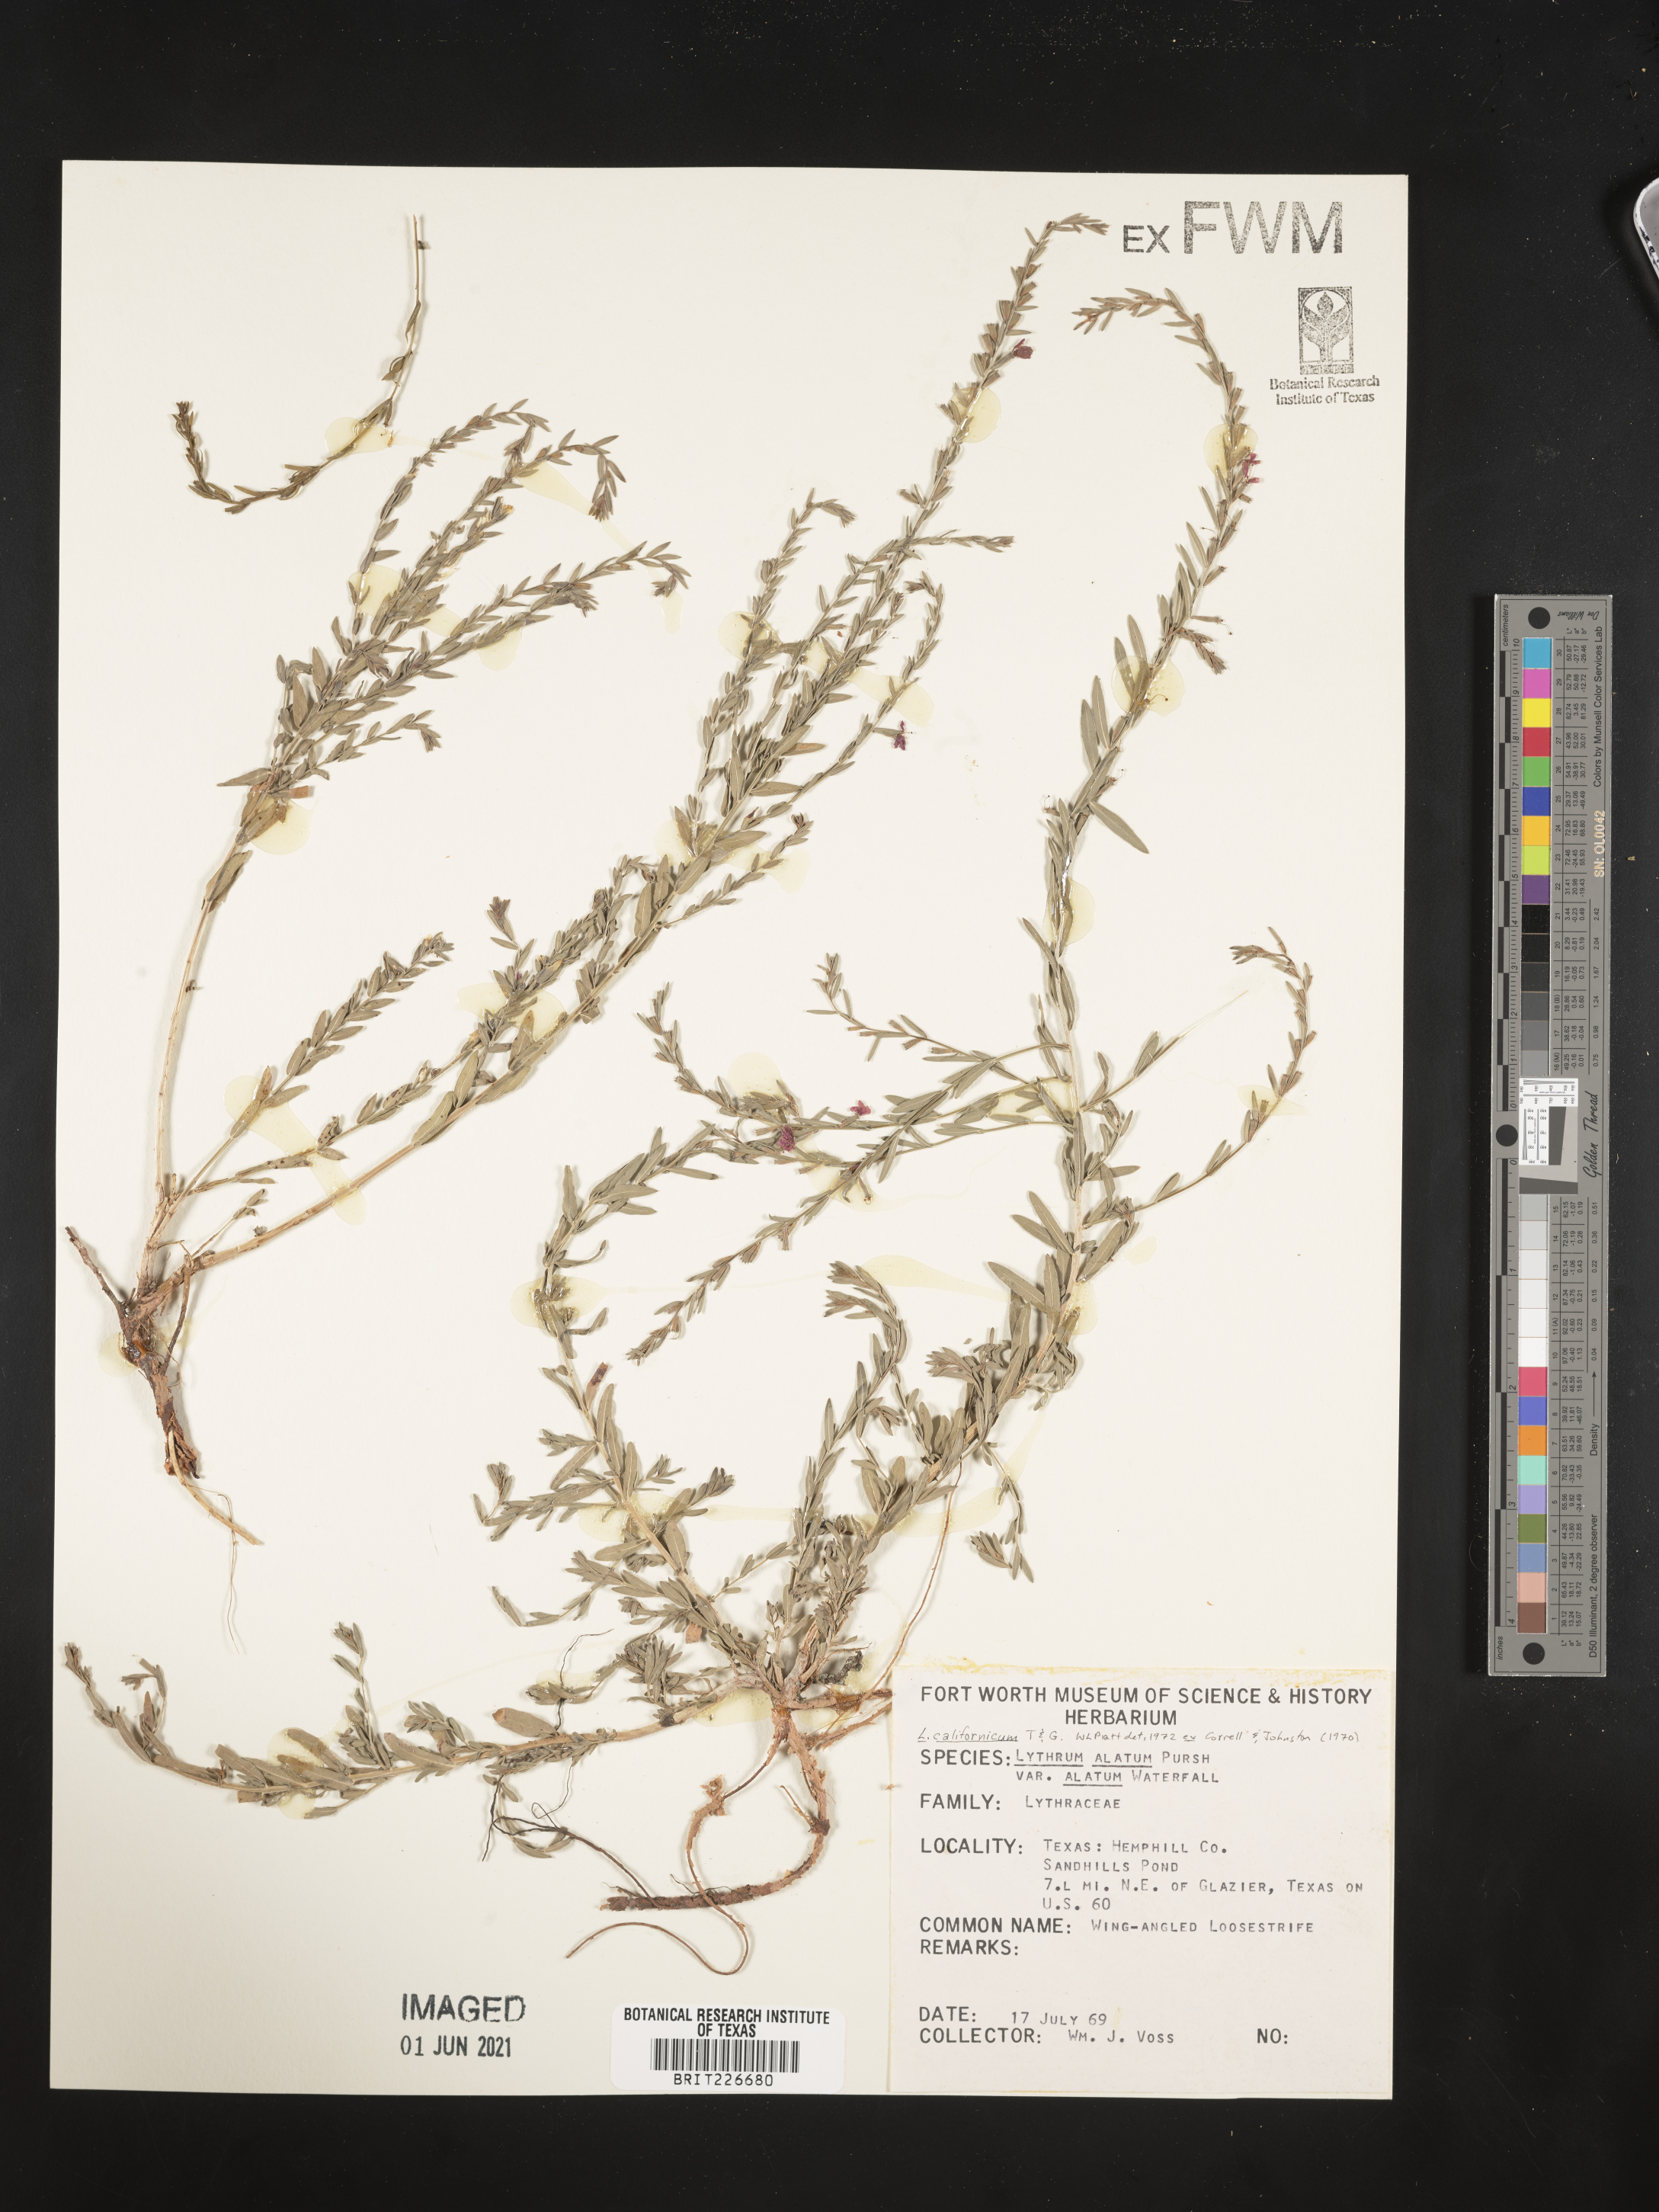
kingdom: Plantae
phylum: Tracheophyta
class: Magnoliopsida
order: Myrtales
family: Lythraceae
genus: Lythrum
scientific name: Lythrum californicum
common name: California loosestrife
